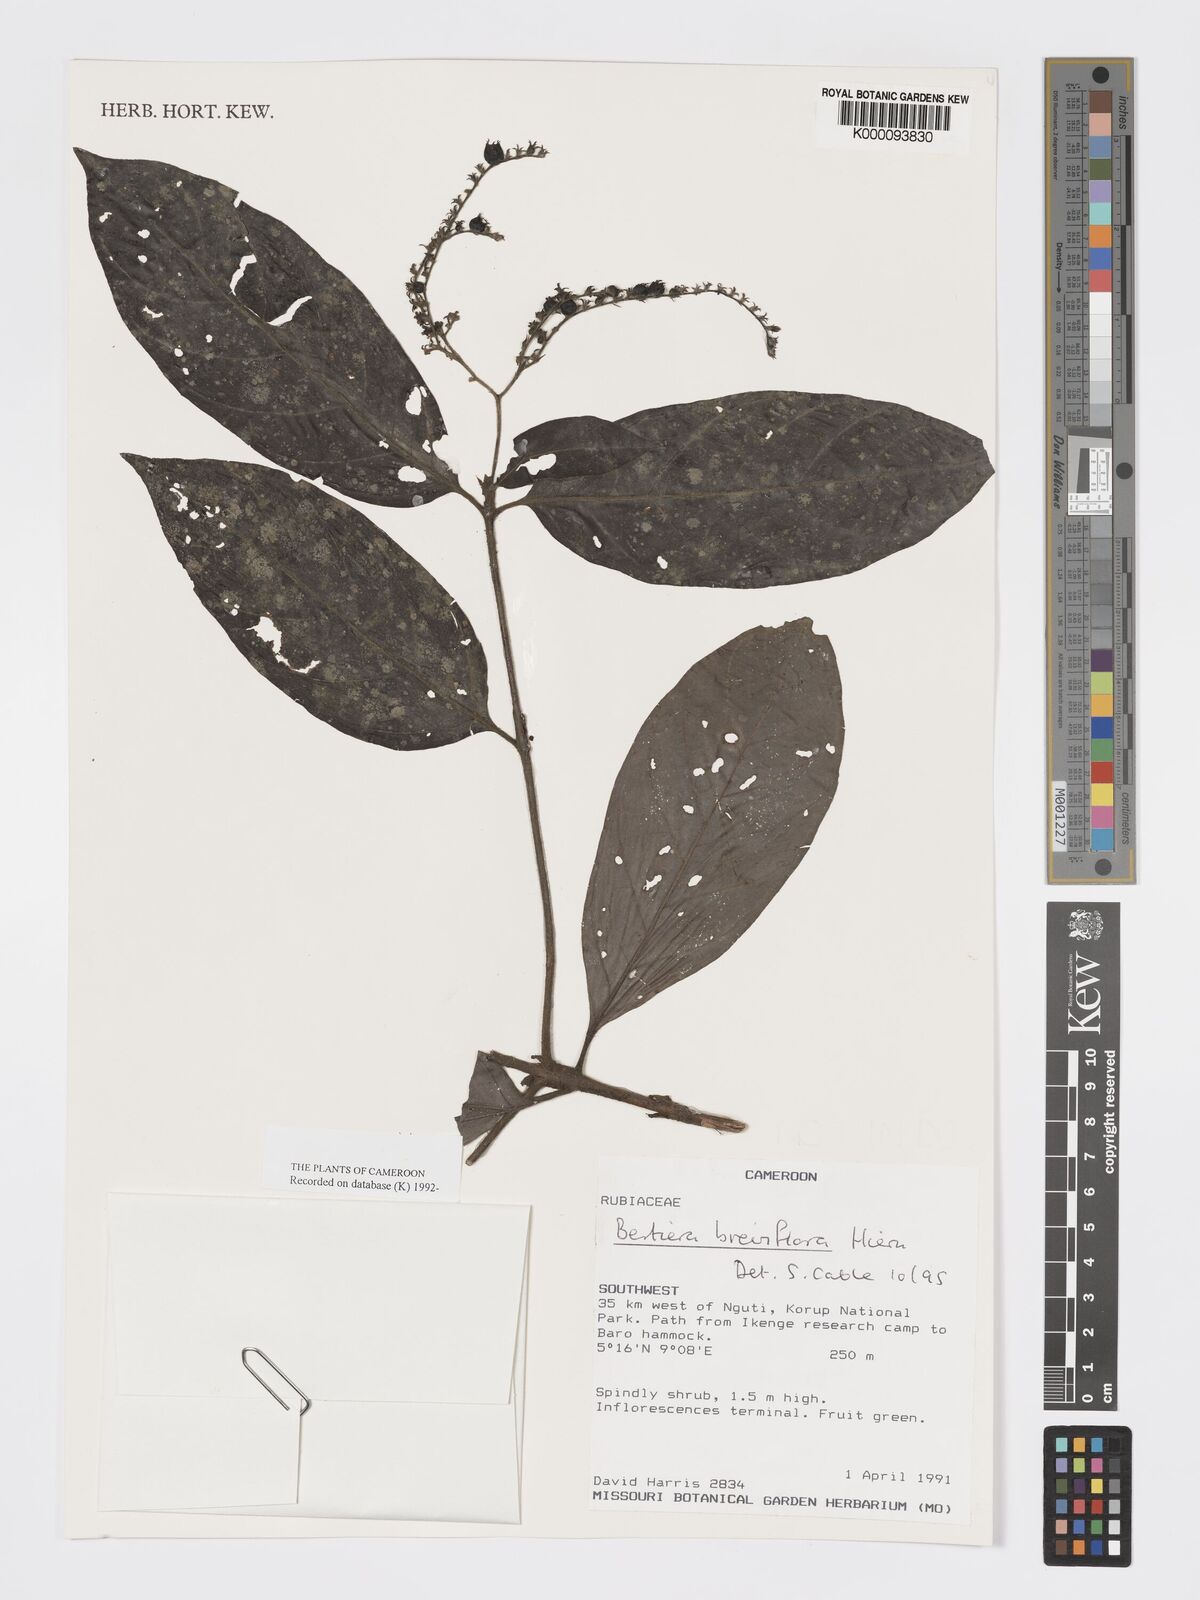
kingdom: Plantae
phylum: Tracheophyta
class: Magnoliopsida
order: Gentianales
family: Rubiaceae
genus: Bertiera
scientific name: Bertiera breviflora
